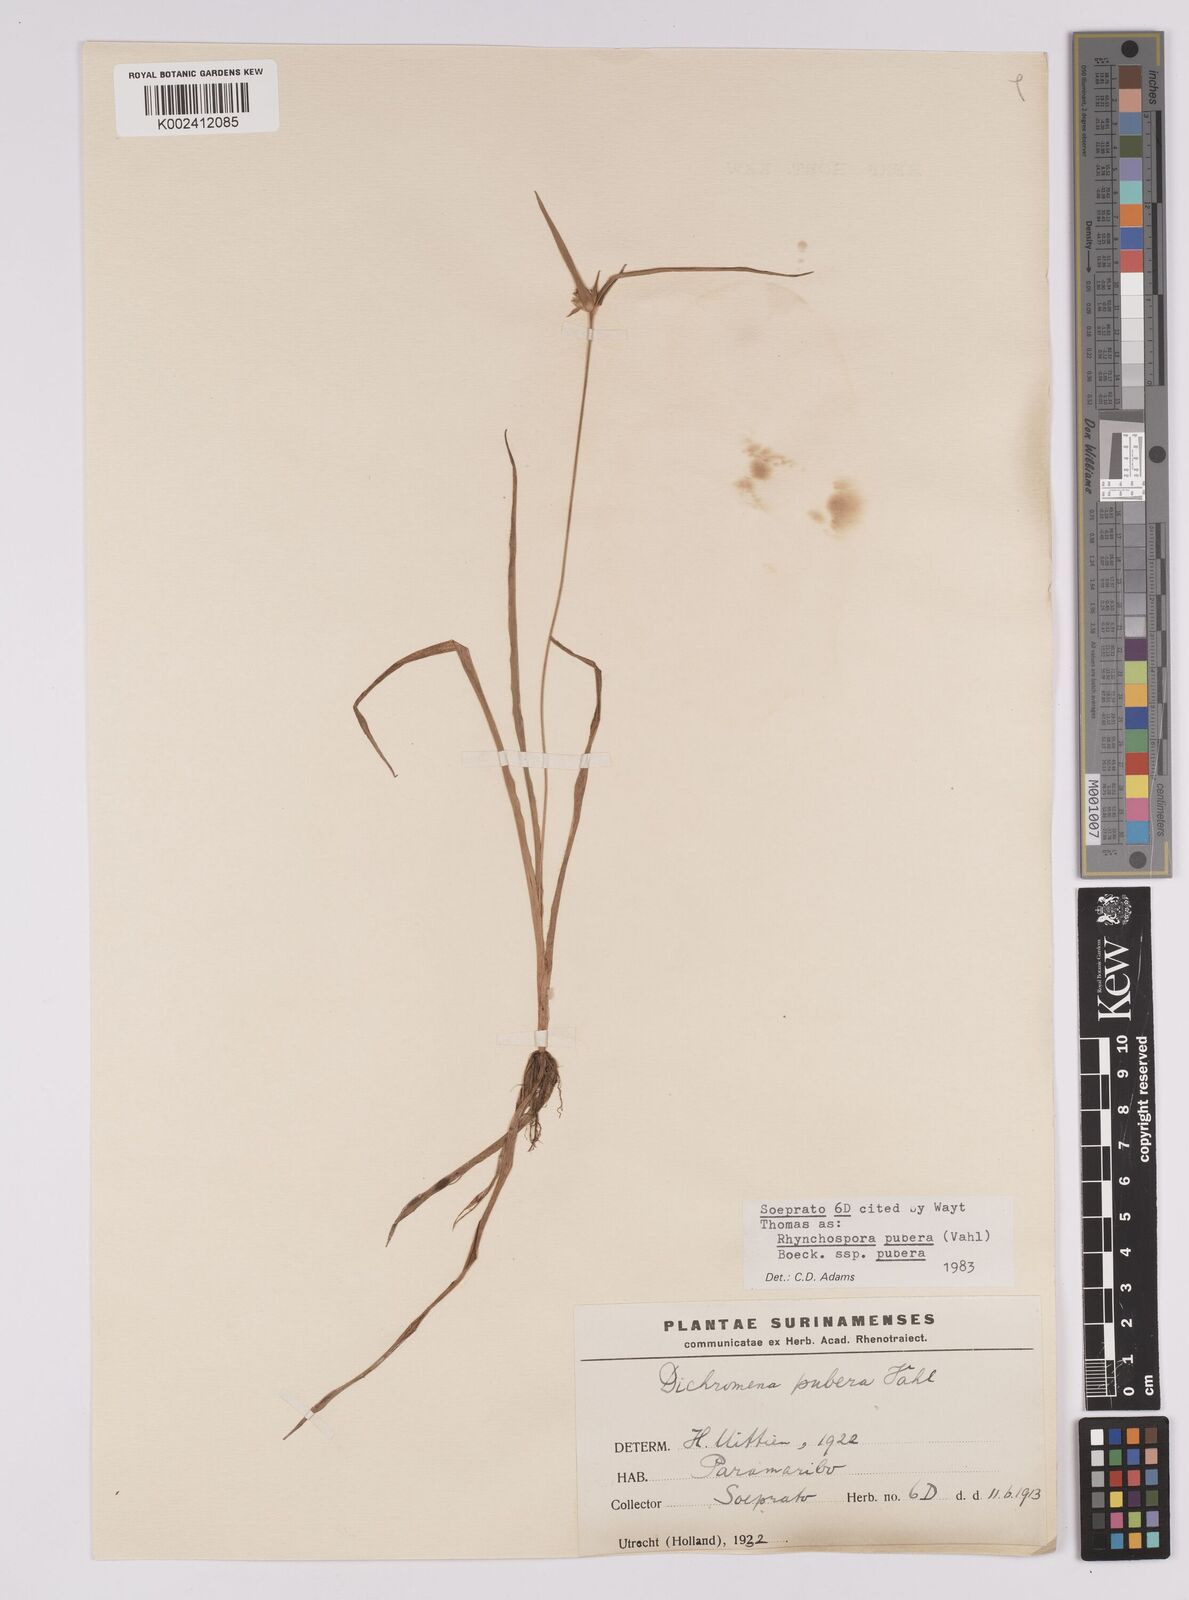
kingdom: Plantae
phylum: Tracheophyta
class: Liliopsida
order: Poales
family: Cyperaceae
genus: Rhynchospora
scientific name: Rhynchospora pubera
